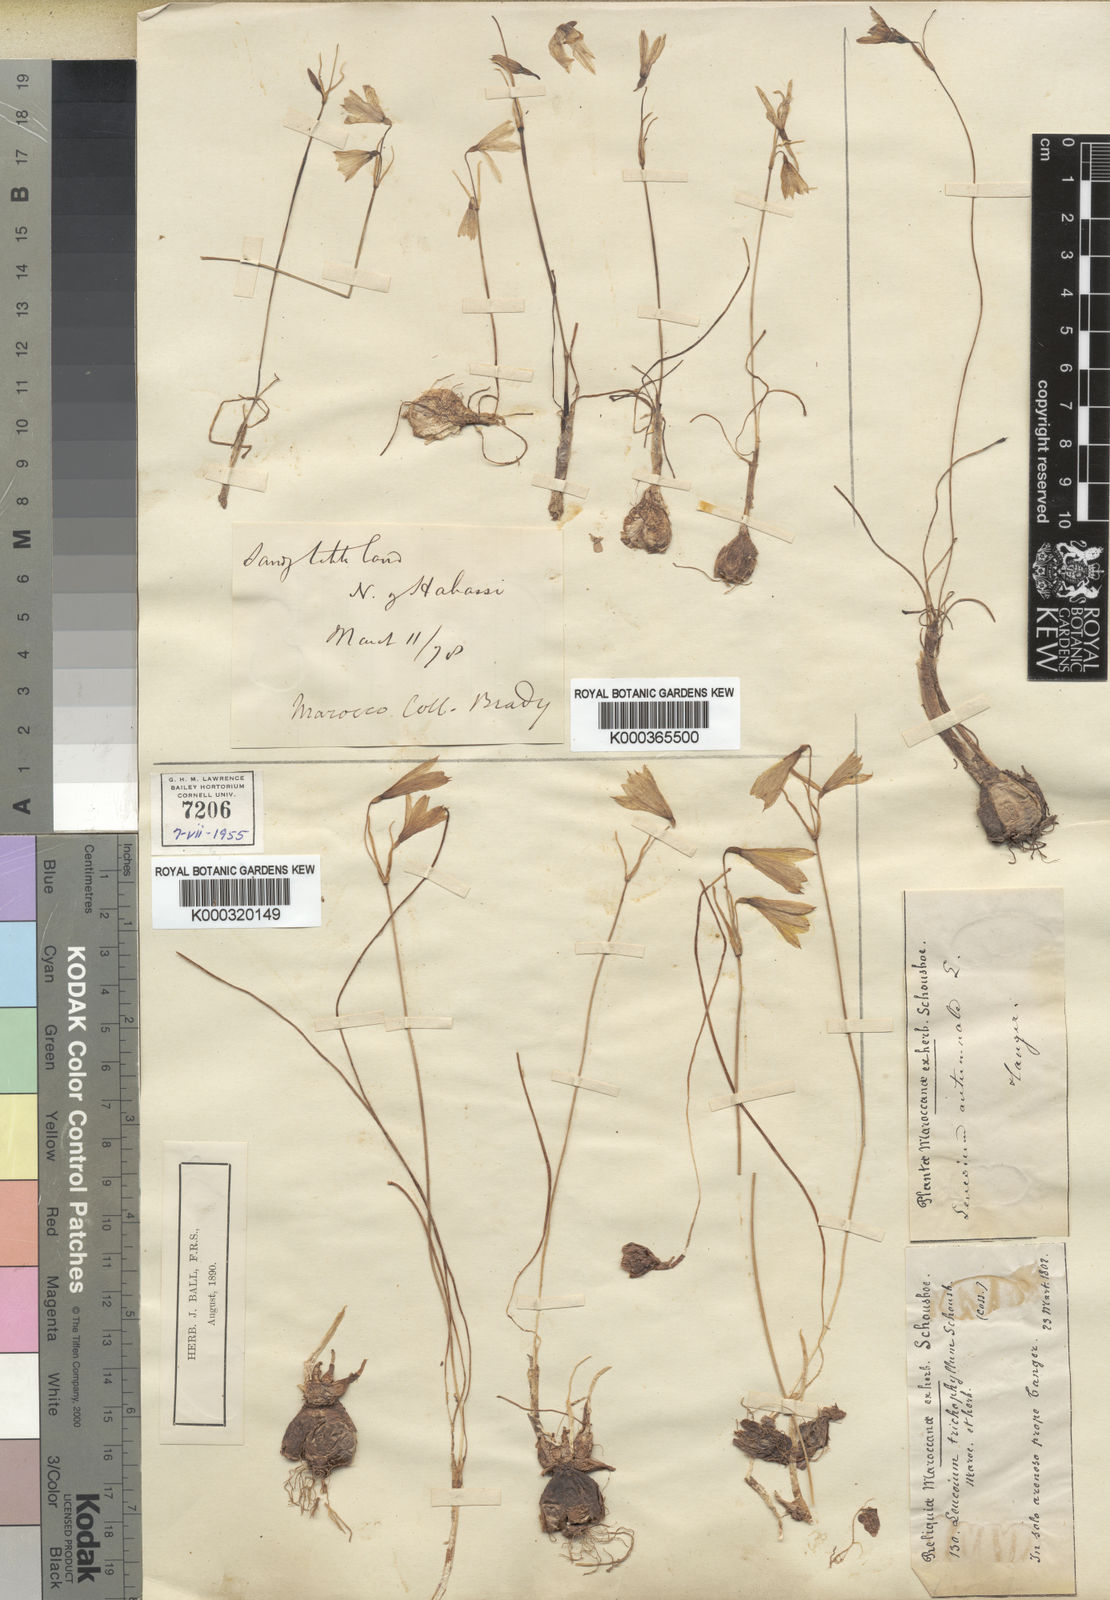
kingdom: Plantae
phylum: Tracheophyta
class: Liliopsida
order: Asparagales
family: Amaryllidaceae
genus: Acis
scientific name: Acis trichophylla
